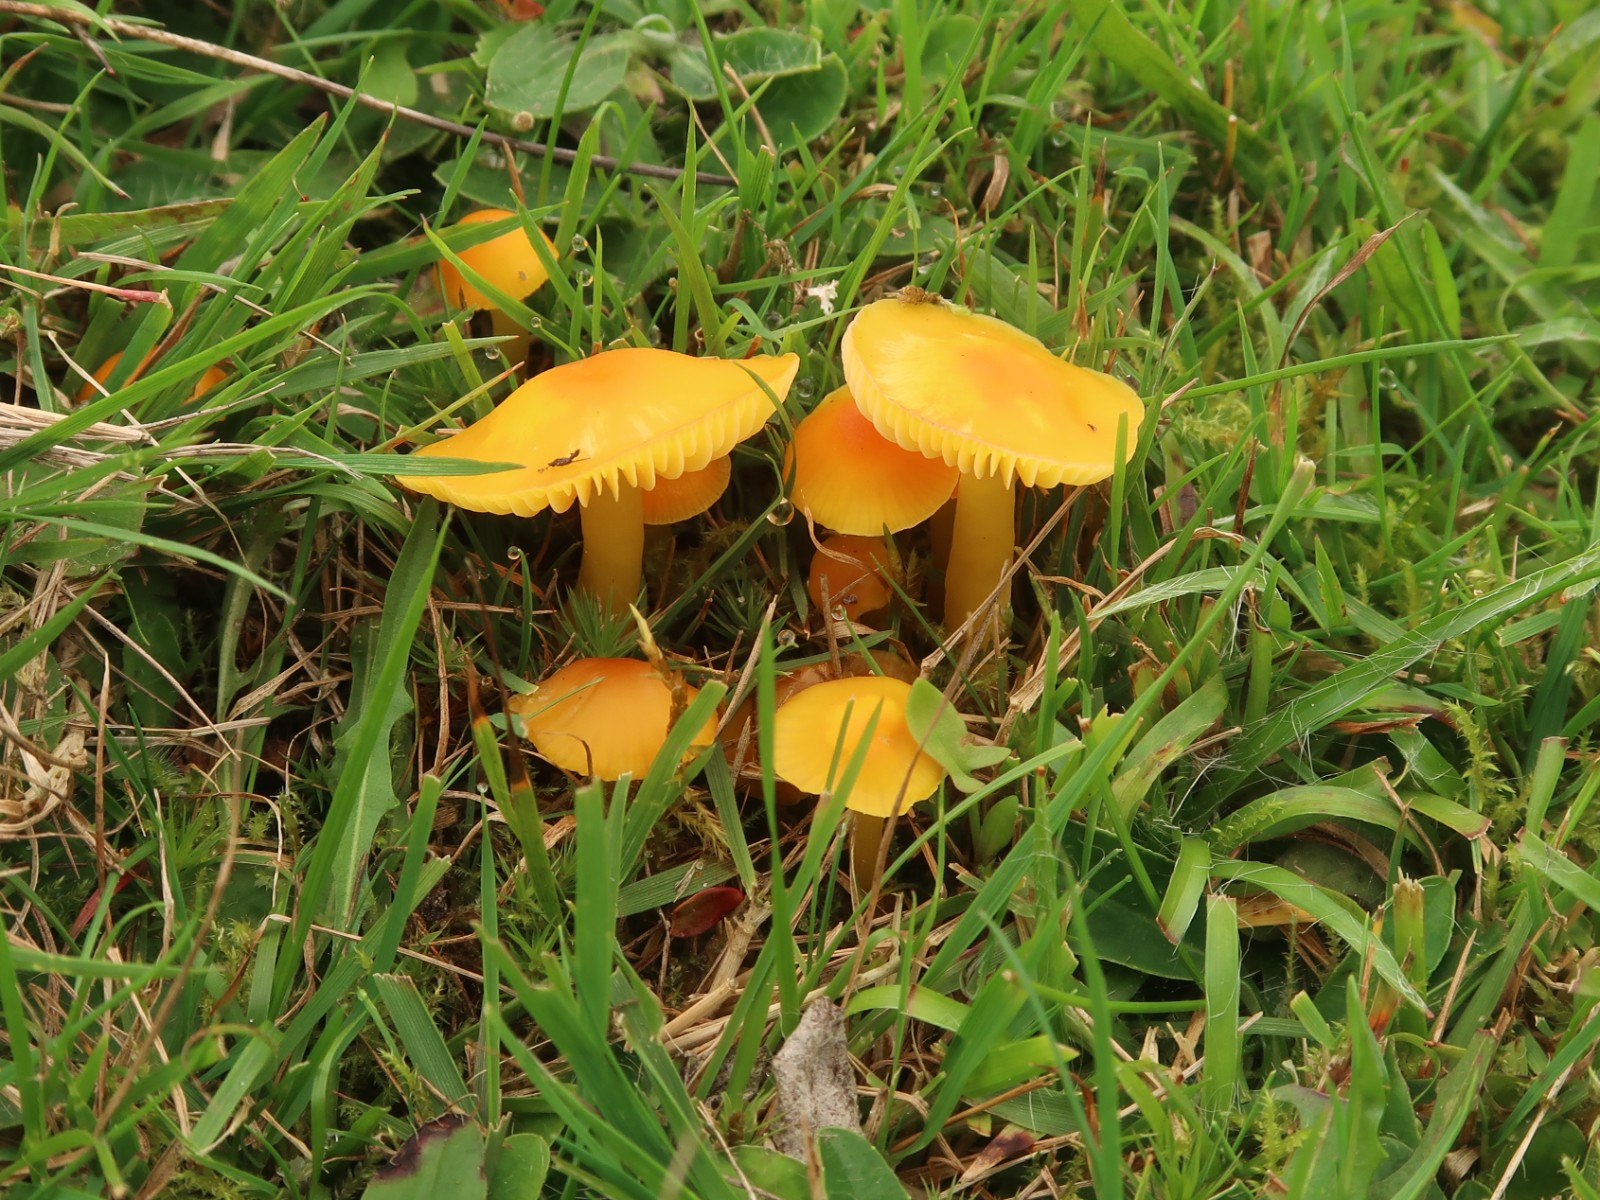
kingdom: Fungi
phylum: Basidiomycota
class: Agaricomycetes
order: Agaricales
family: Hygrophoraceae
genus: Hygrocybe
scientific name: Hygrocybe ceracea
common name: voksgul vokshat
